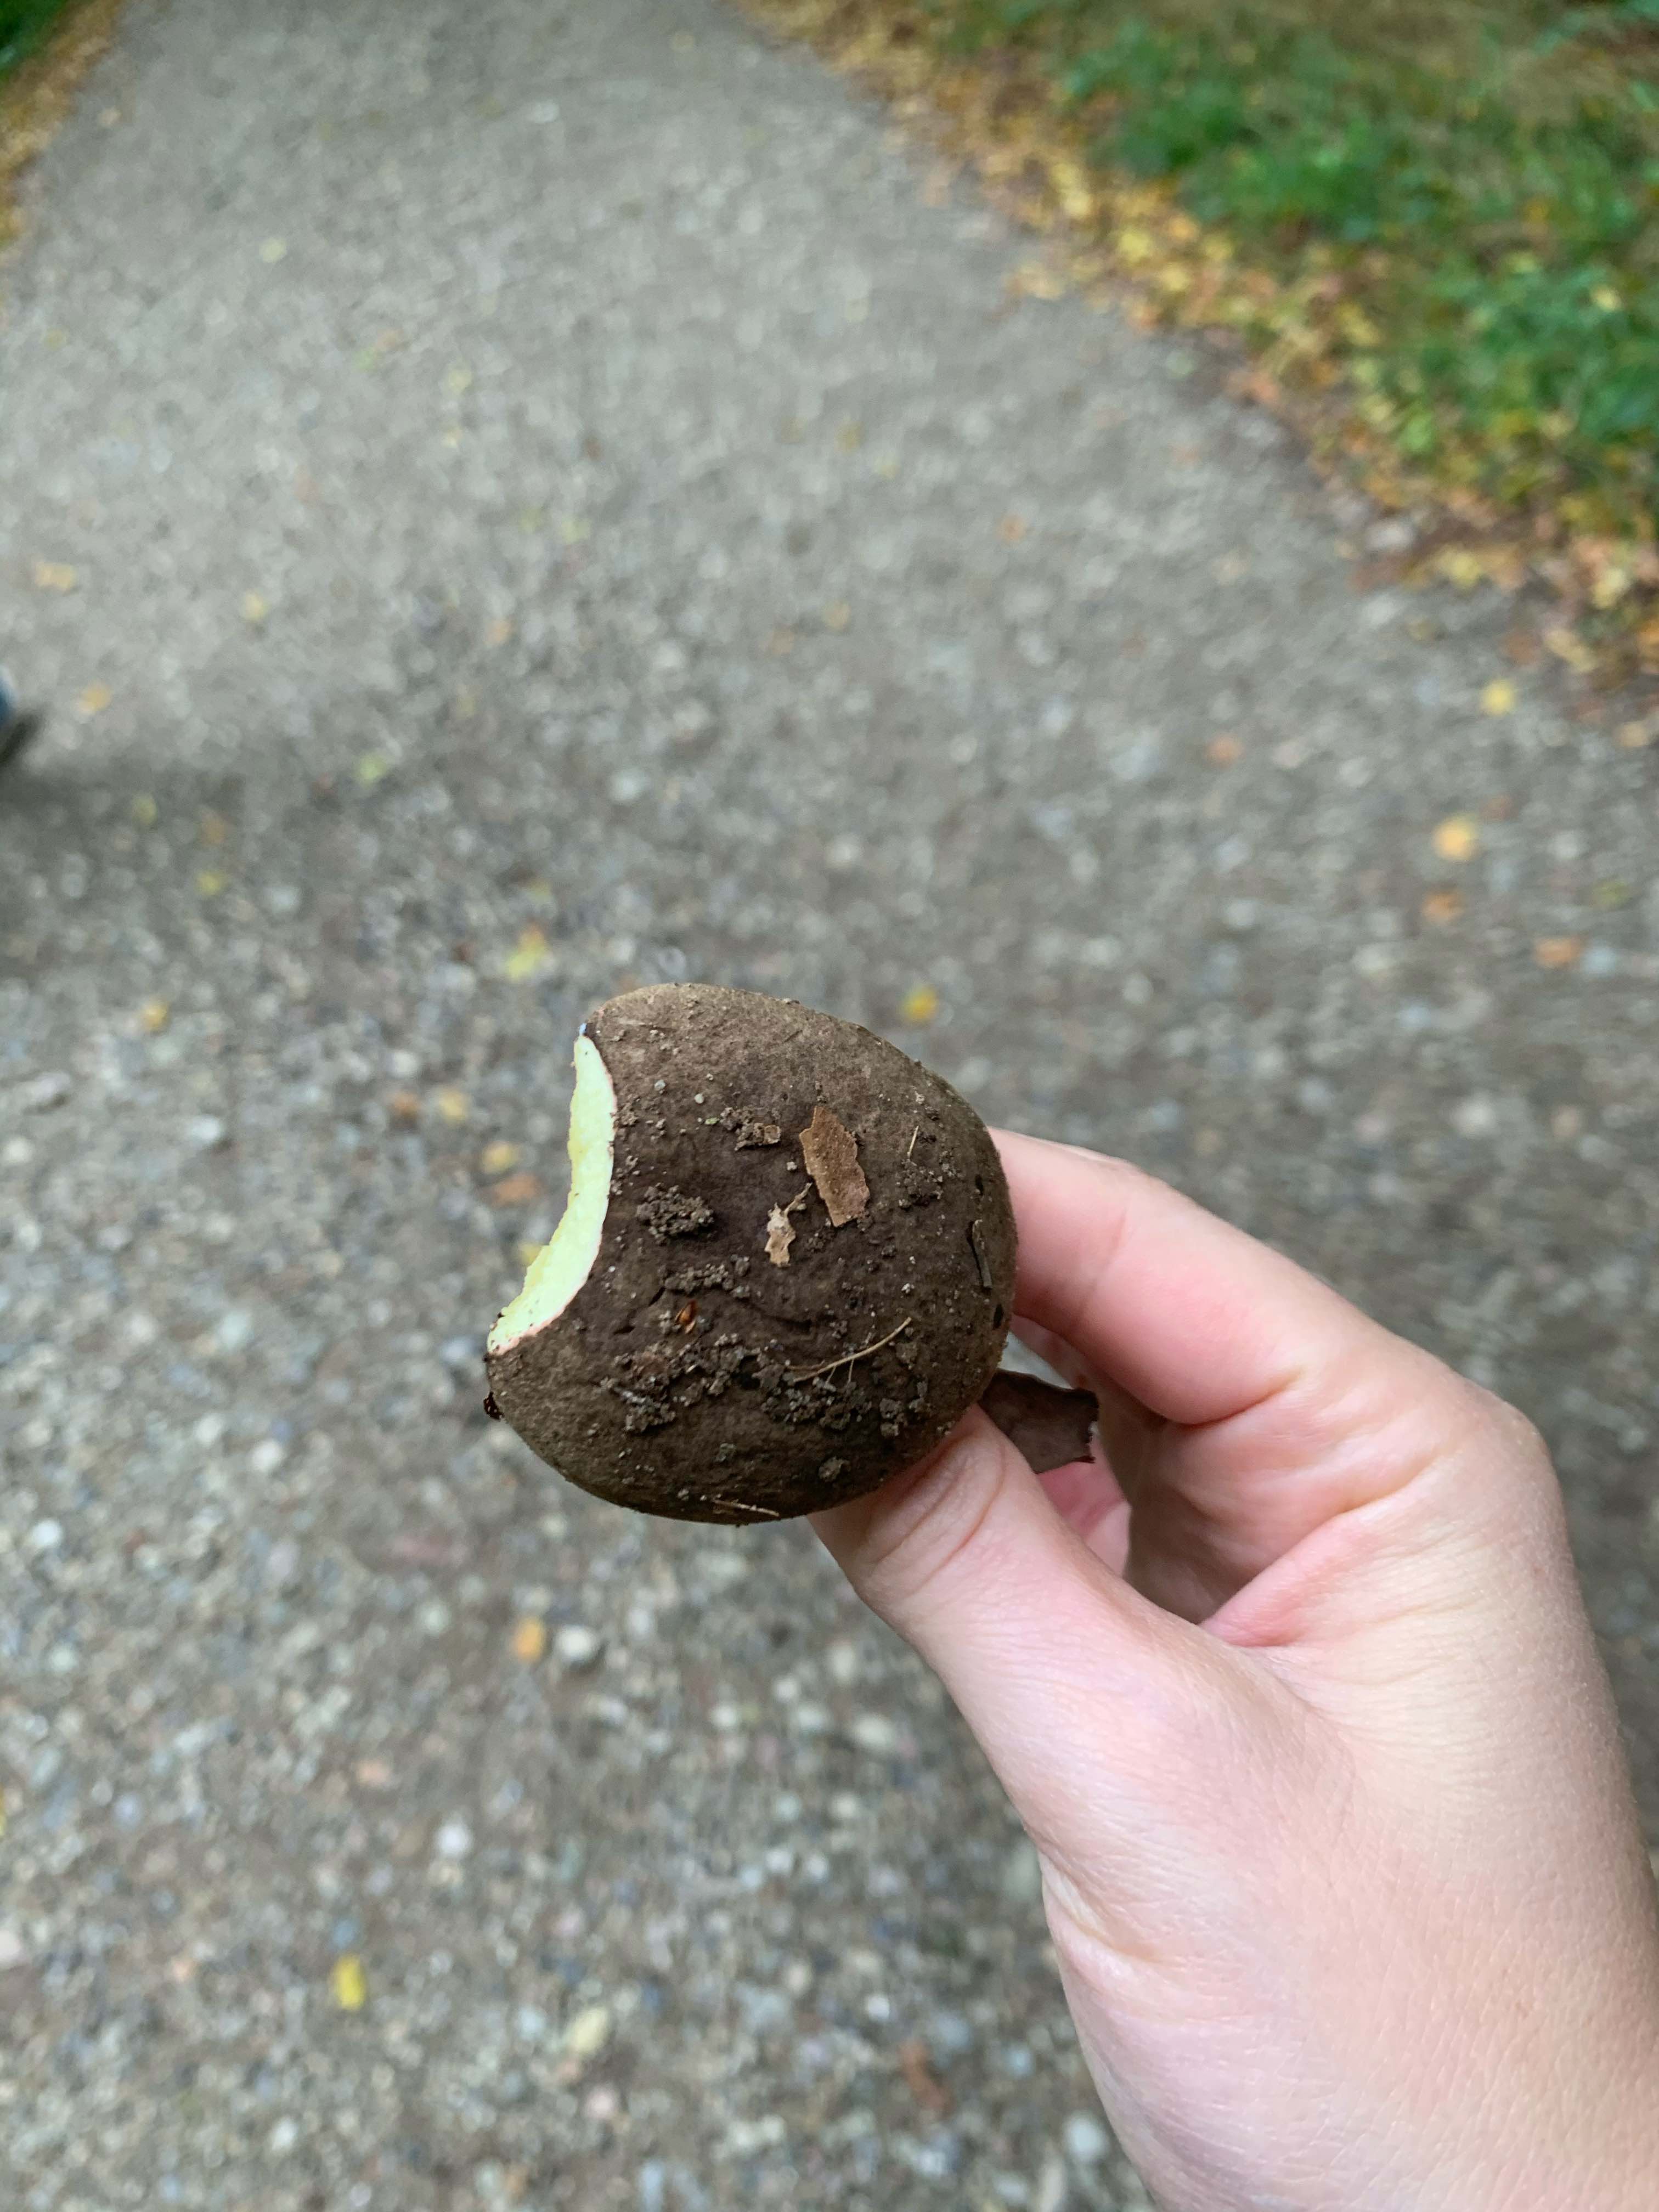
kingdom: Fungi
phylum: Basidiomycota
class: Agaricomycetes
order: Boletales
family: Boletaceae
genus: Xerocomellus
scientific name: Xerocomellus
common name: dværgrørhat
